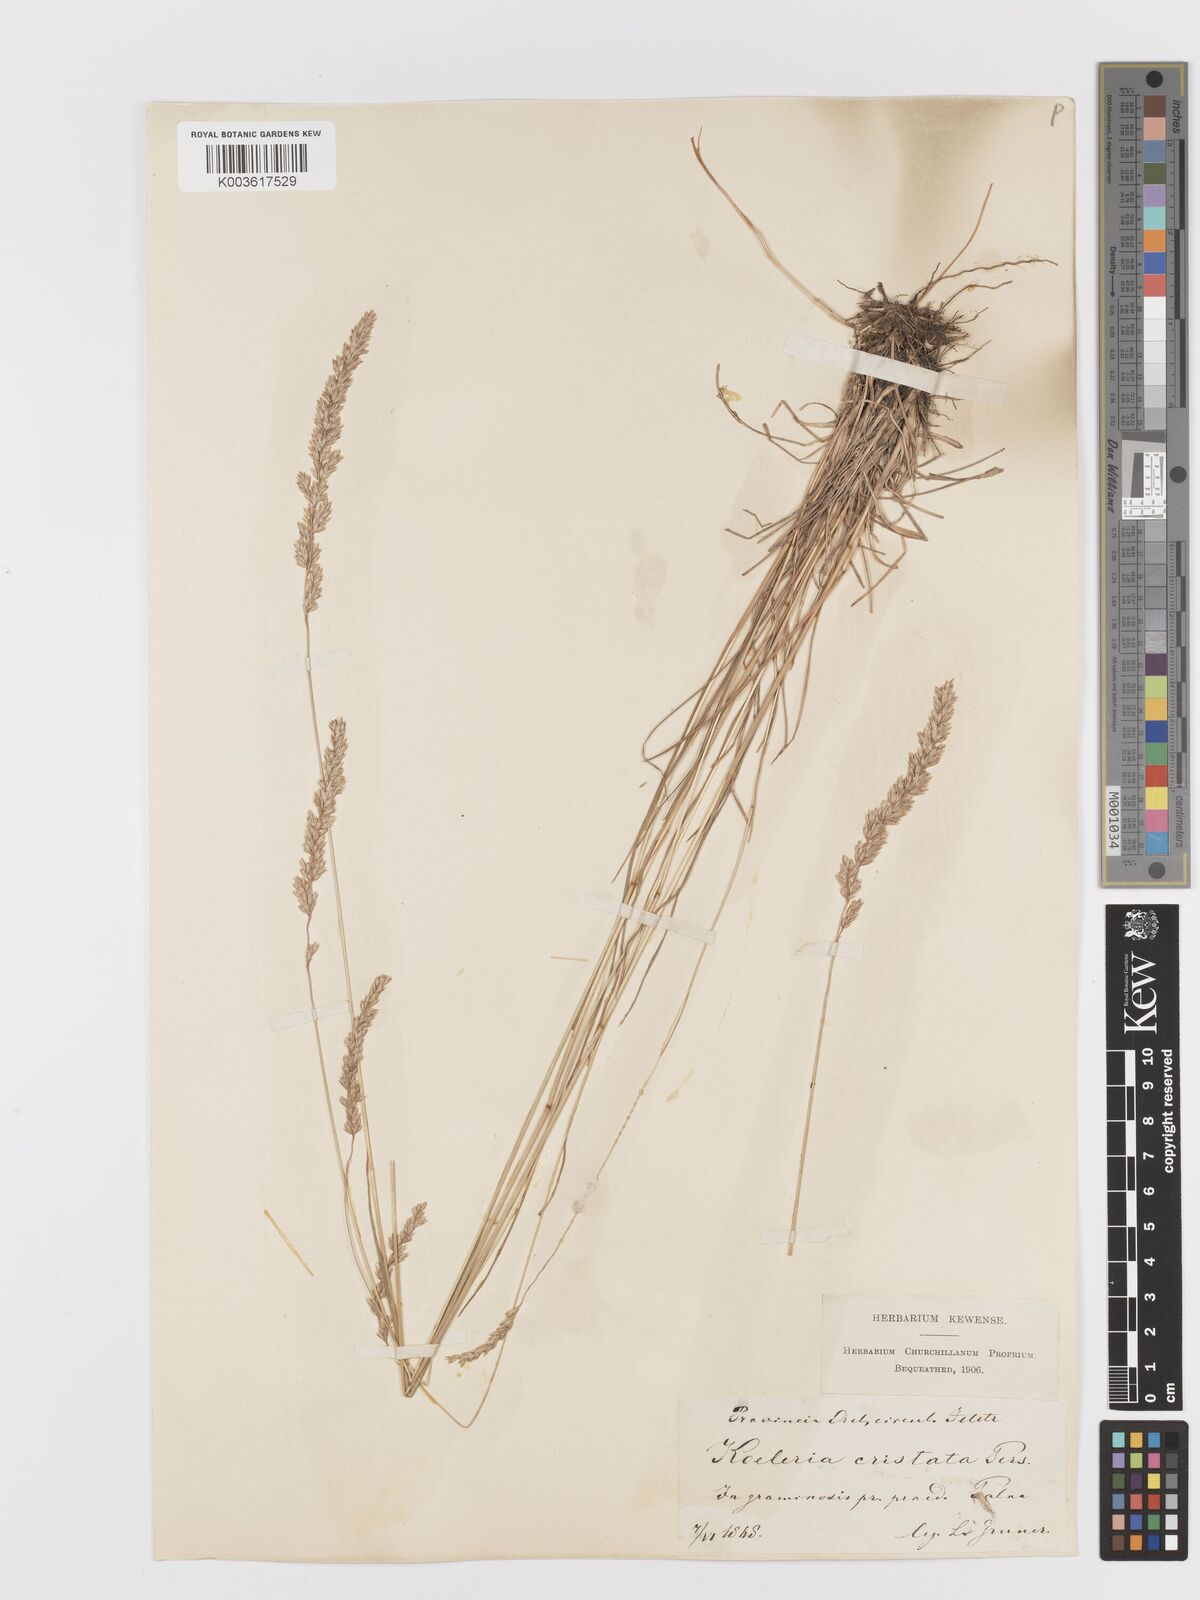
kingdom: Plantae
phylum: Tracheophyta
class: Liliopsida
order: Poales
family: Poaceae
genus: Koeleria
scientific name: Koeleria
